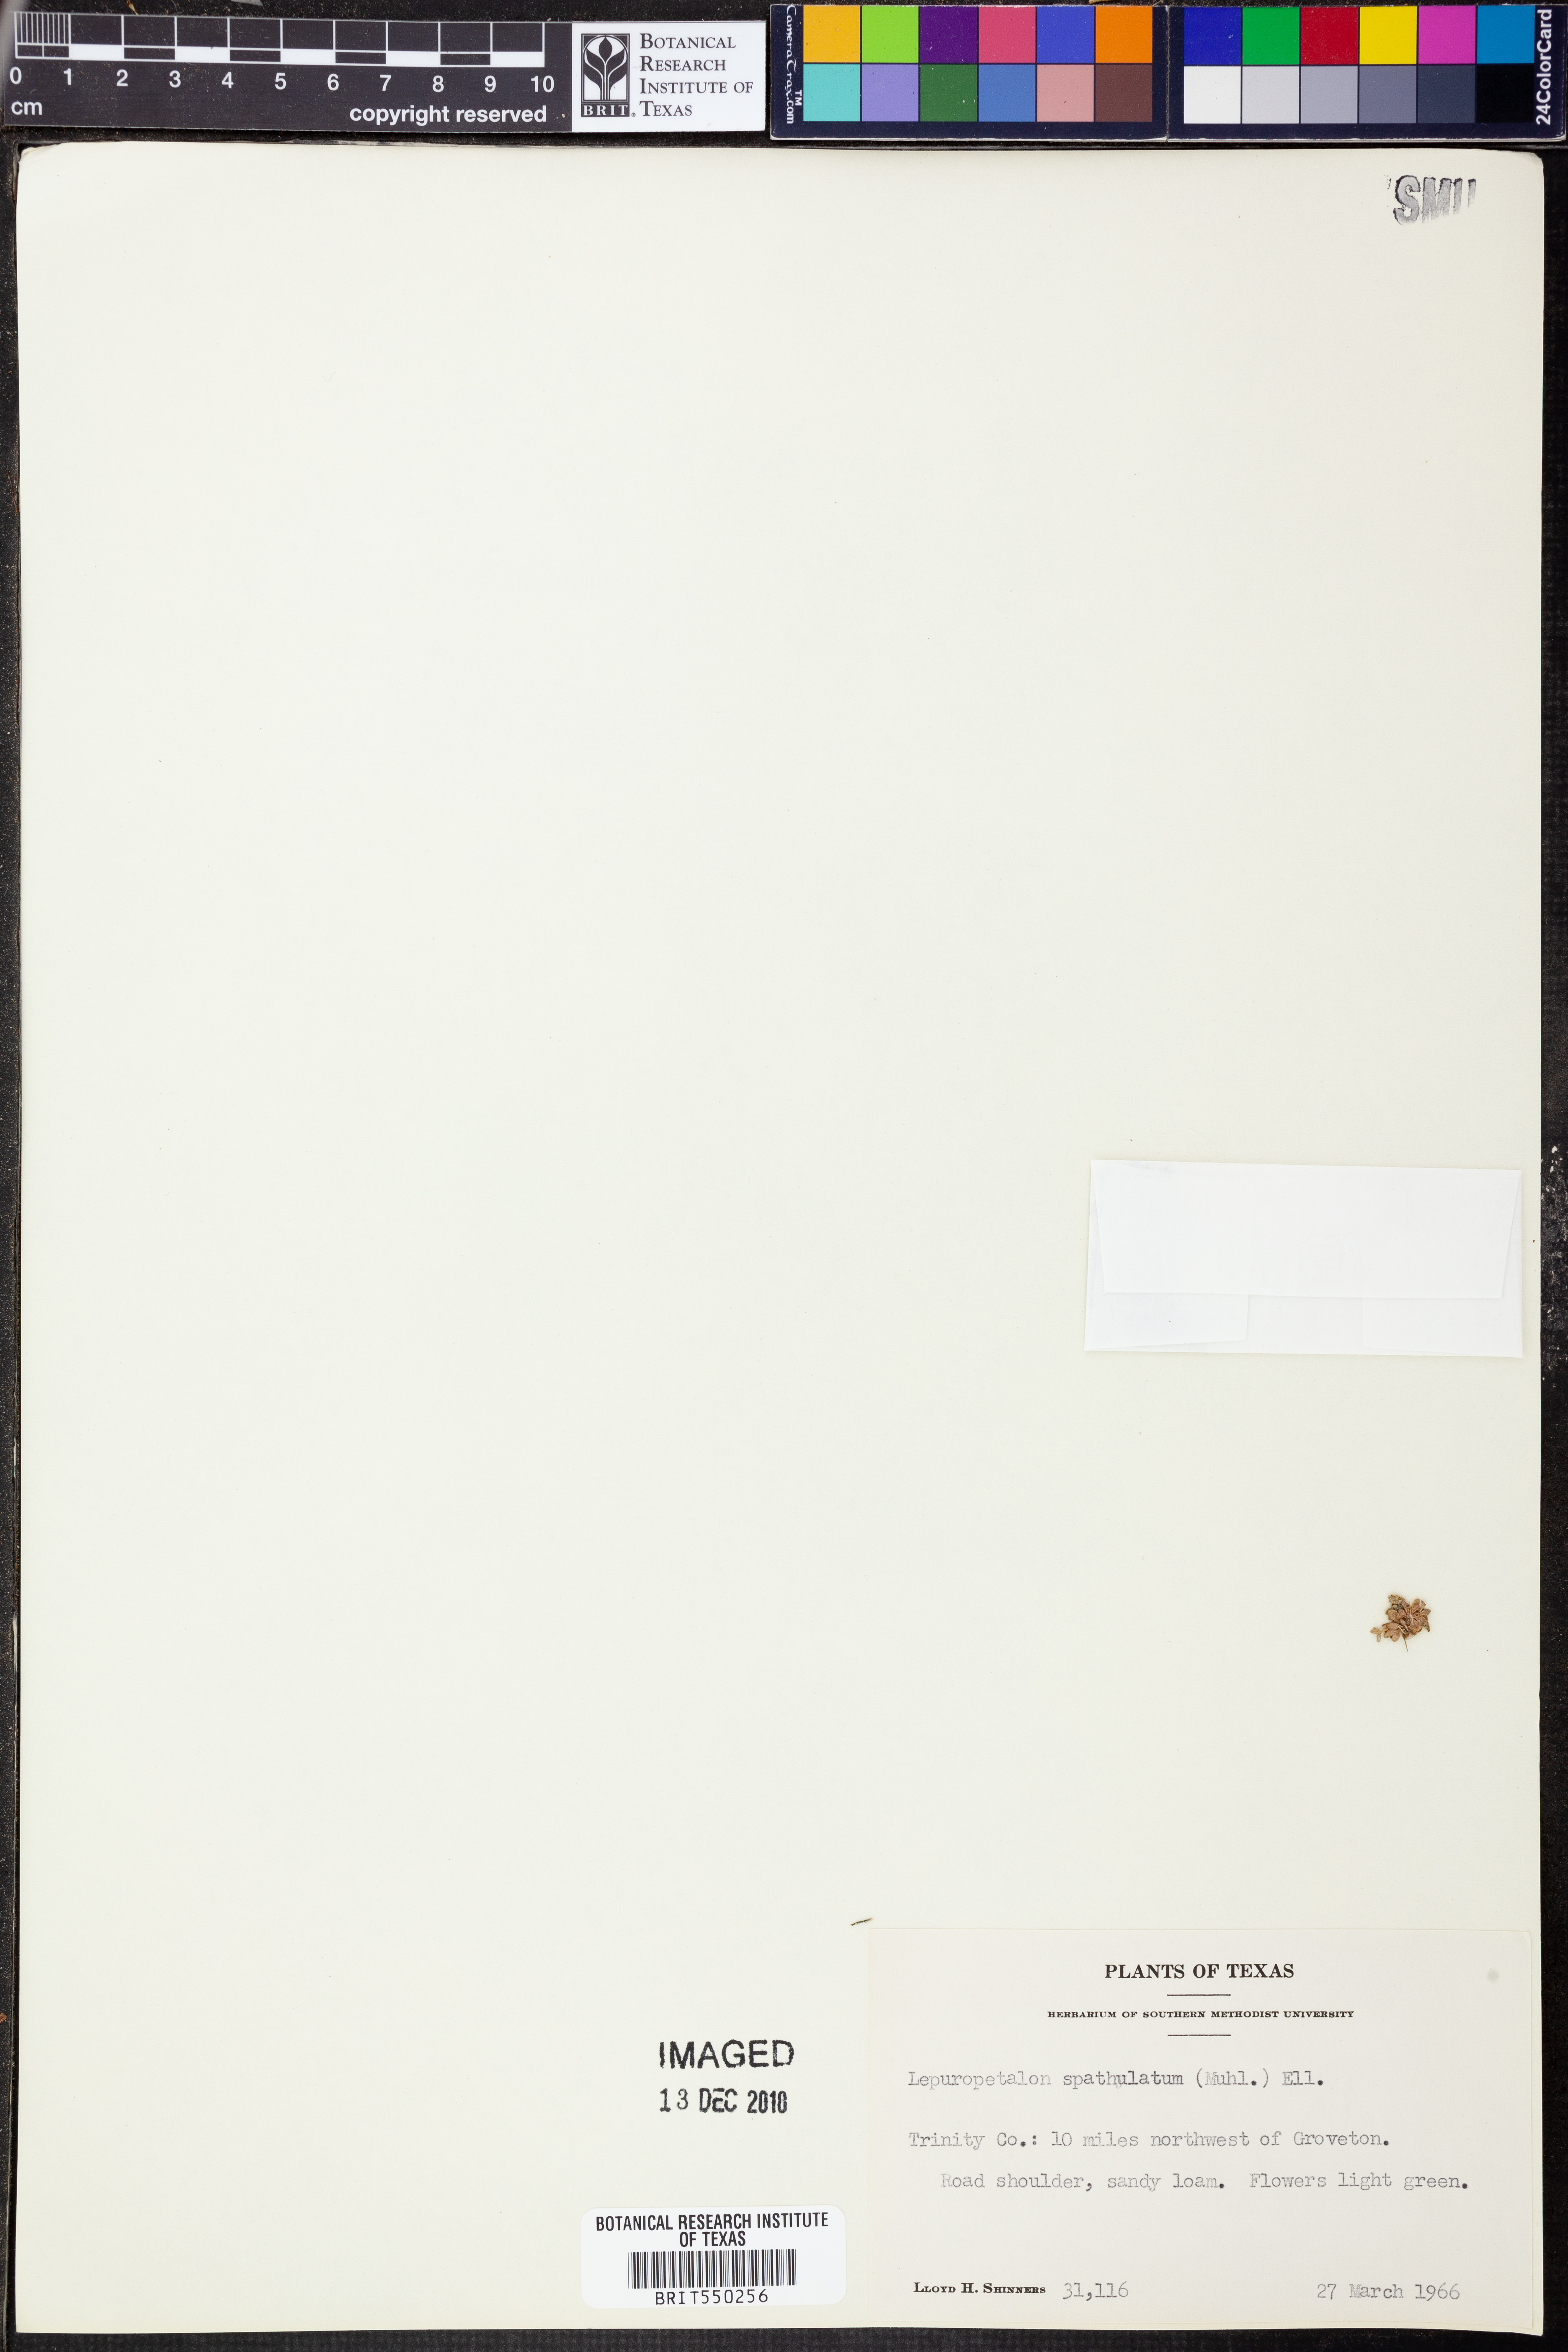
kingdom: Plantae
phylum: Tracheophyta
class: Magnoliopsida
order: Celastrales
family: Parnassiaceae
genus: Lepuropetalon
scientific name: Lepuropetalon spathulatum
